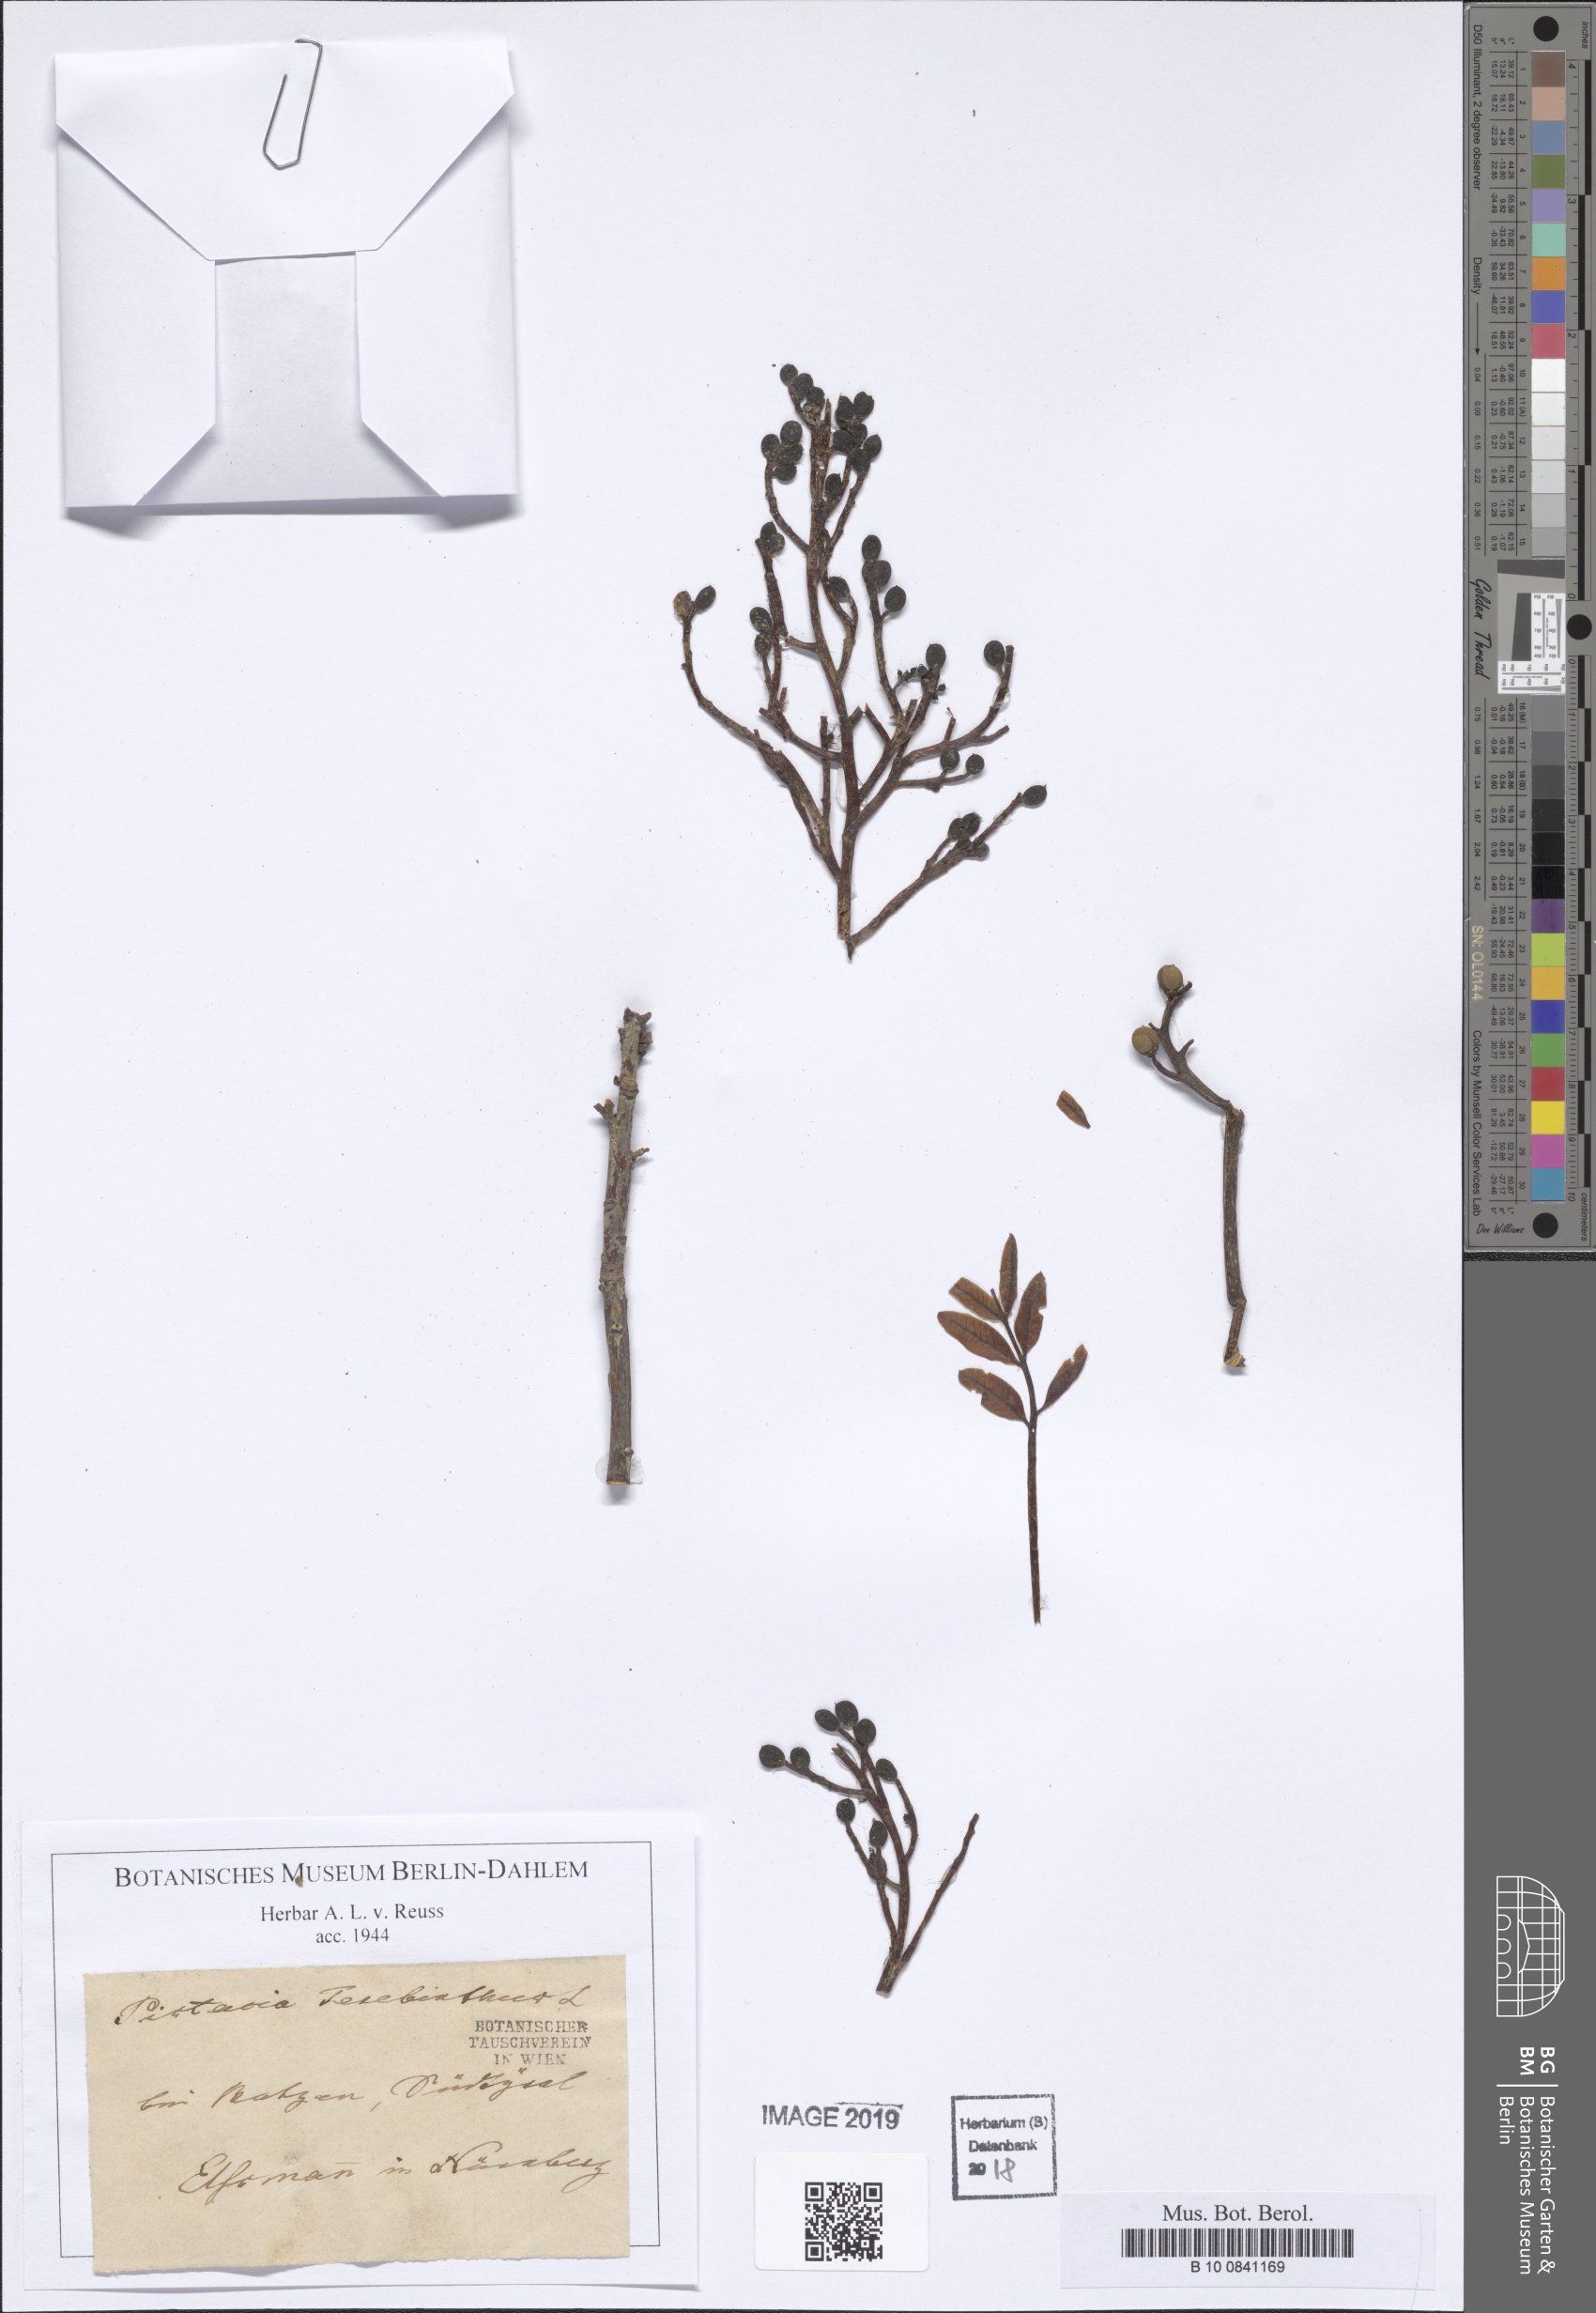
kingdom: Plantae
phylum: Tracheophyta
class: Magnoliopsida
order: Sapindales
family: Anacardiaceae
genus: Pistacia
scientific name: Pistacia terebinthus
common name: Terebinth
